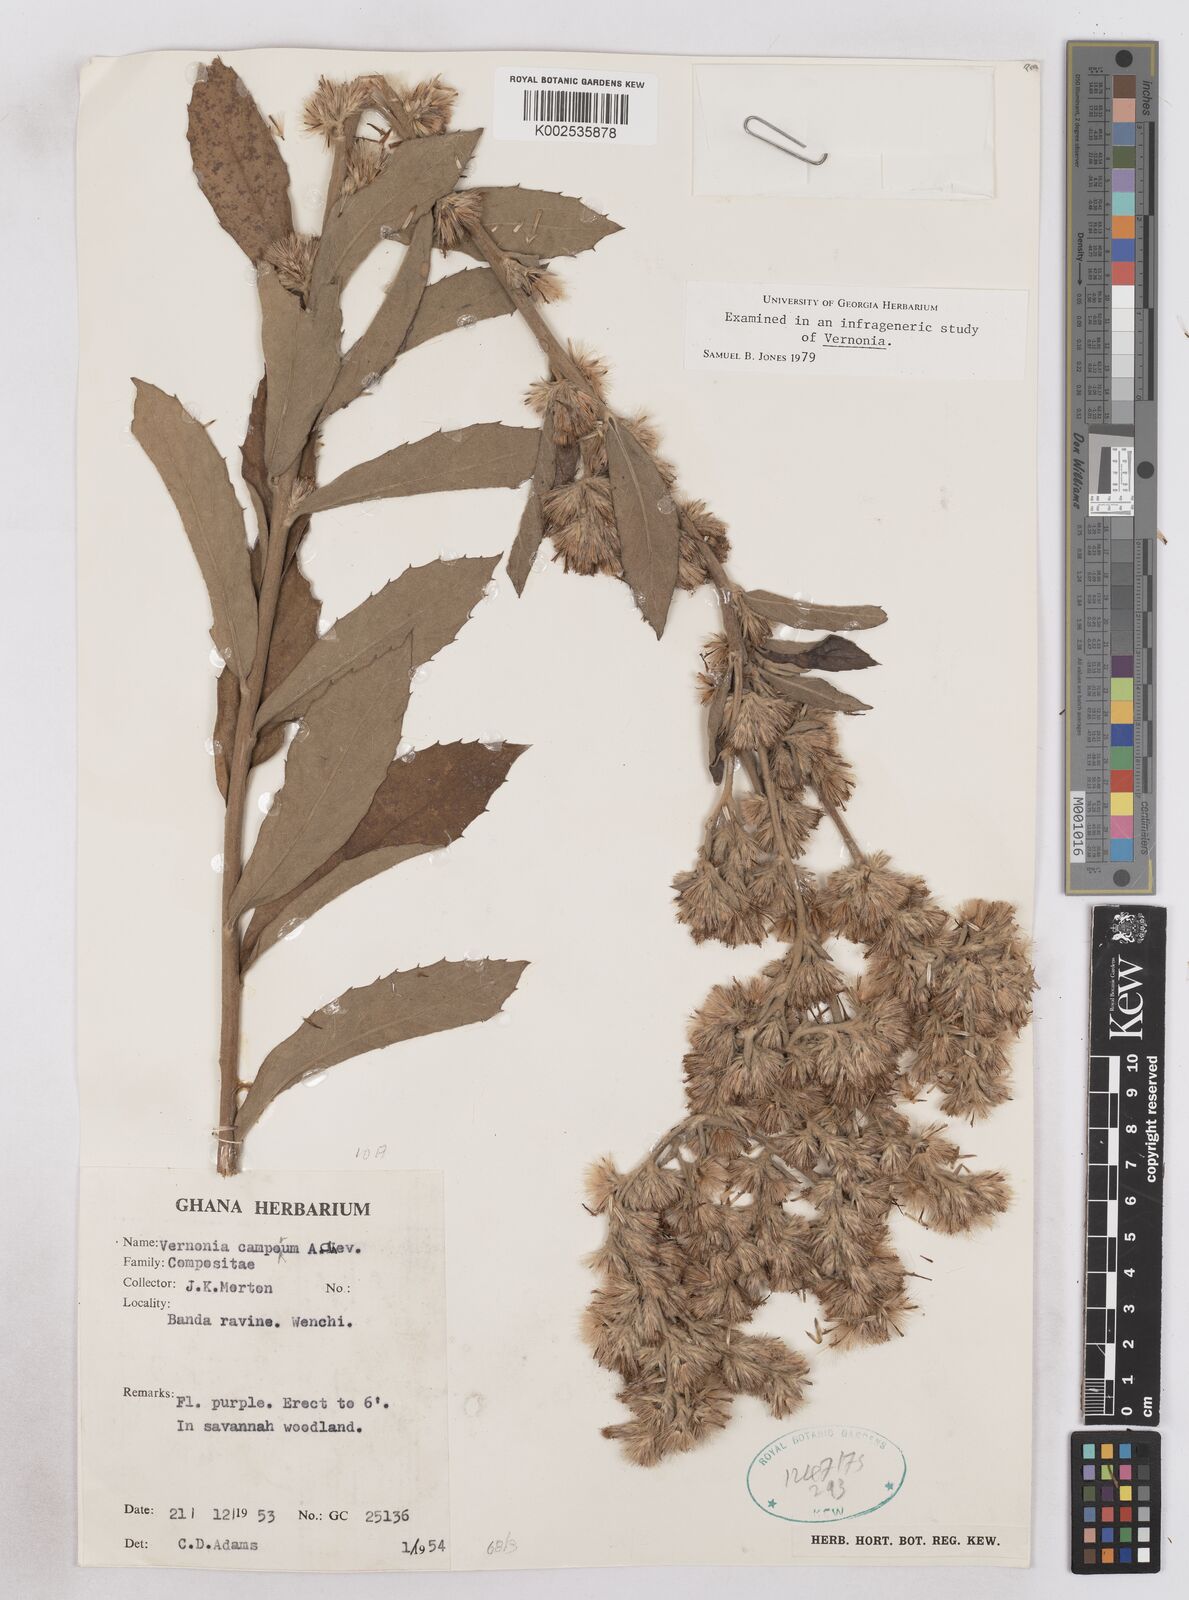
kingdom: Plantae
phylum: Tracheophyta
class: Magnoliopsida
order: Asterales
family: Asteraceae
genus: Vernoniastrum
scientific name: Vernoniastrum camporum
